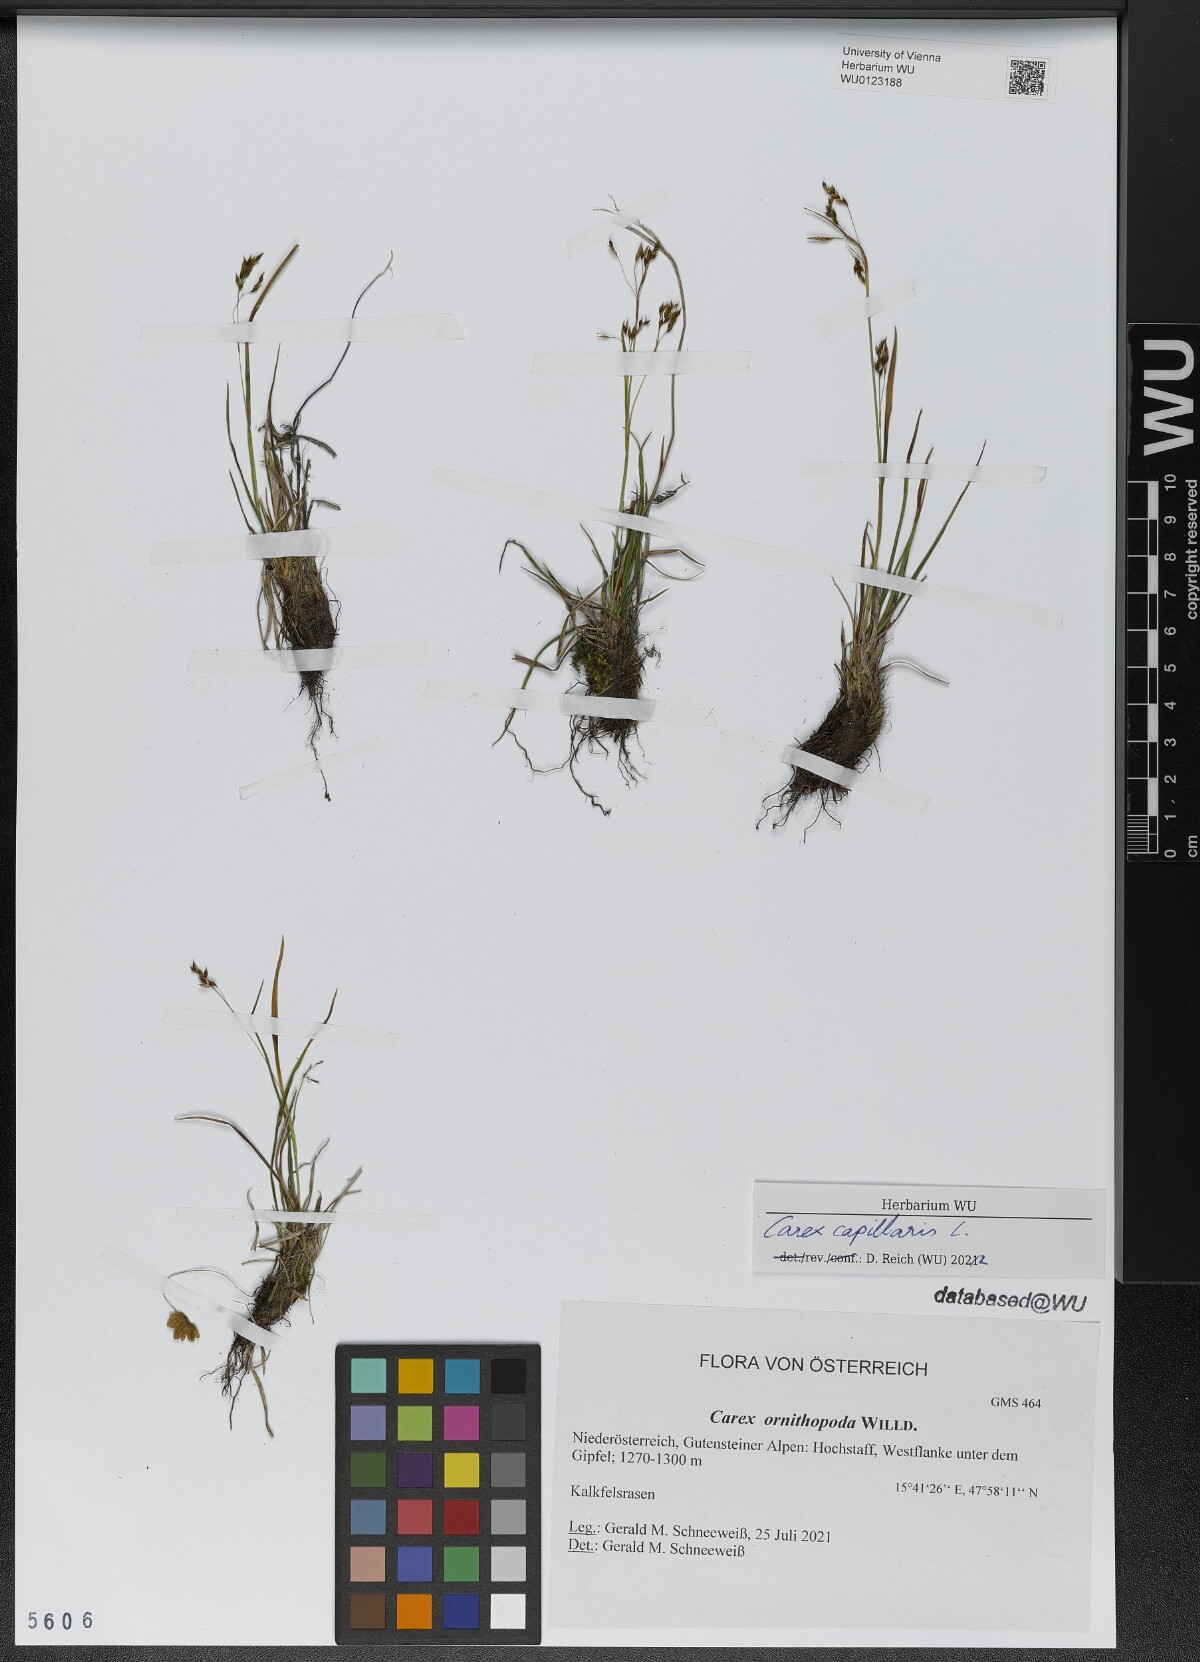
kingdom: Plantae
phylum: Tracheophyta
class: Liliopsida
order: Poales
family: Cyperaceae
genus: Carex
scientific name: Carex capillaris
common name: Hair sedge
